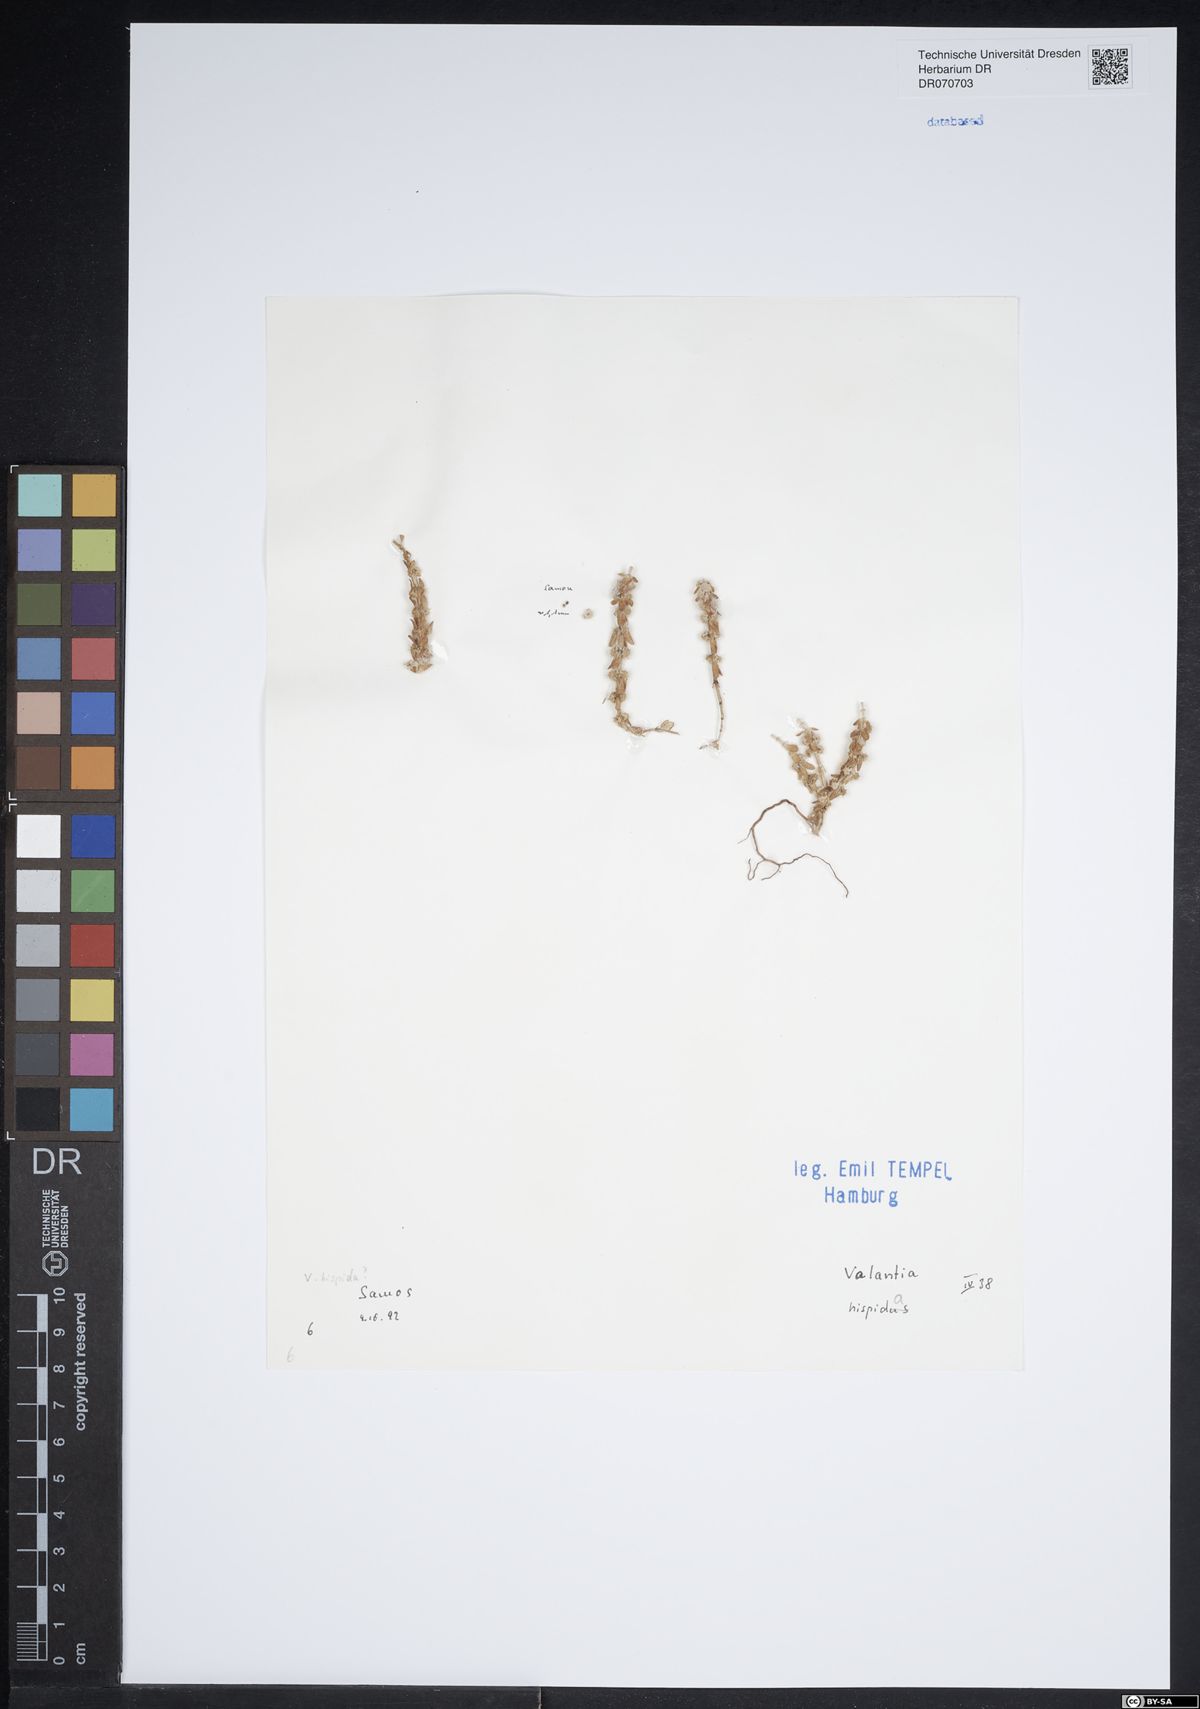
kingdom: Plantae
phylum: Tracheophyta
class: Magnoliopsida
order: Gentianales
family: Rubiaceae
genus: Valantia
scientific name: Valantia hispida
